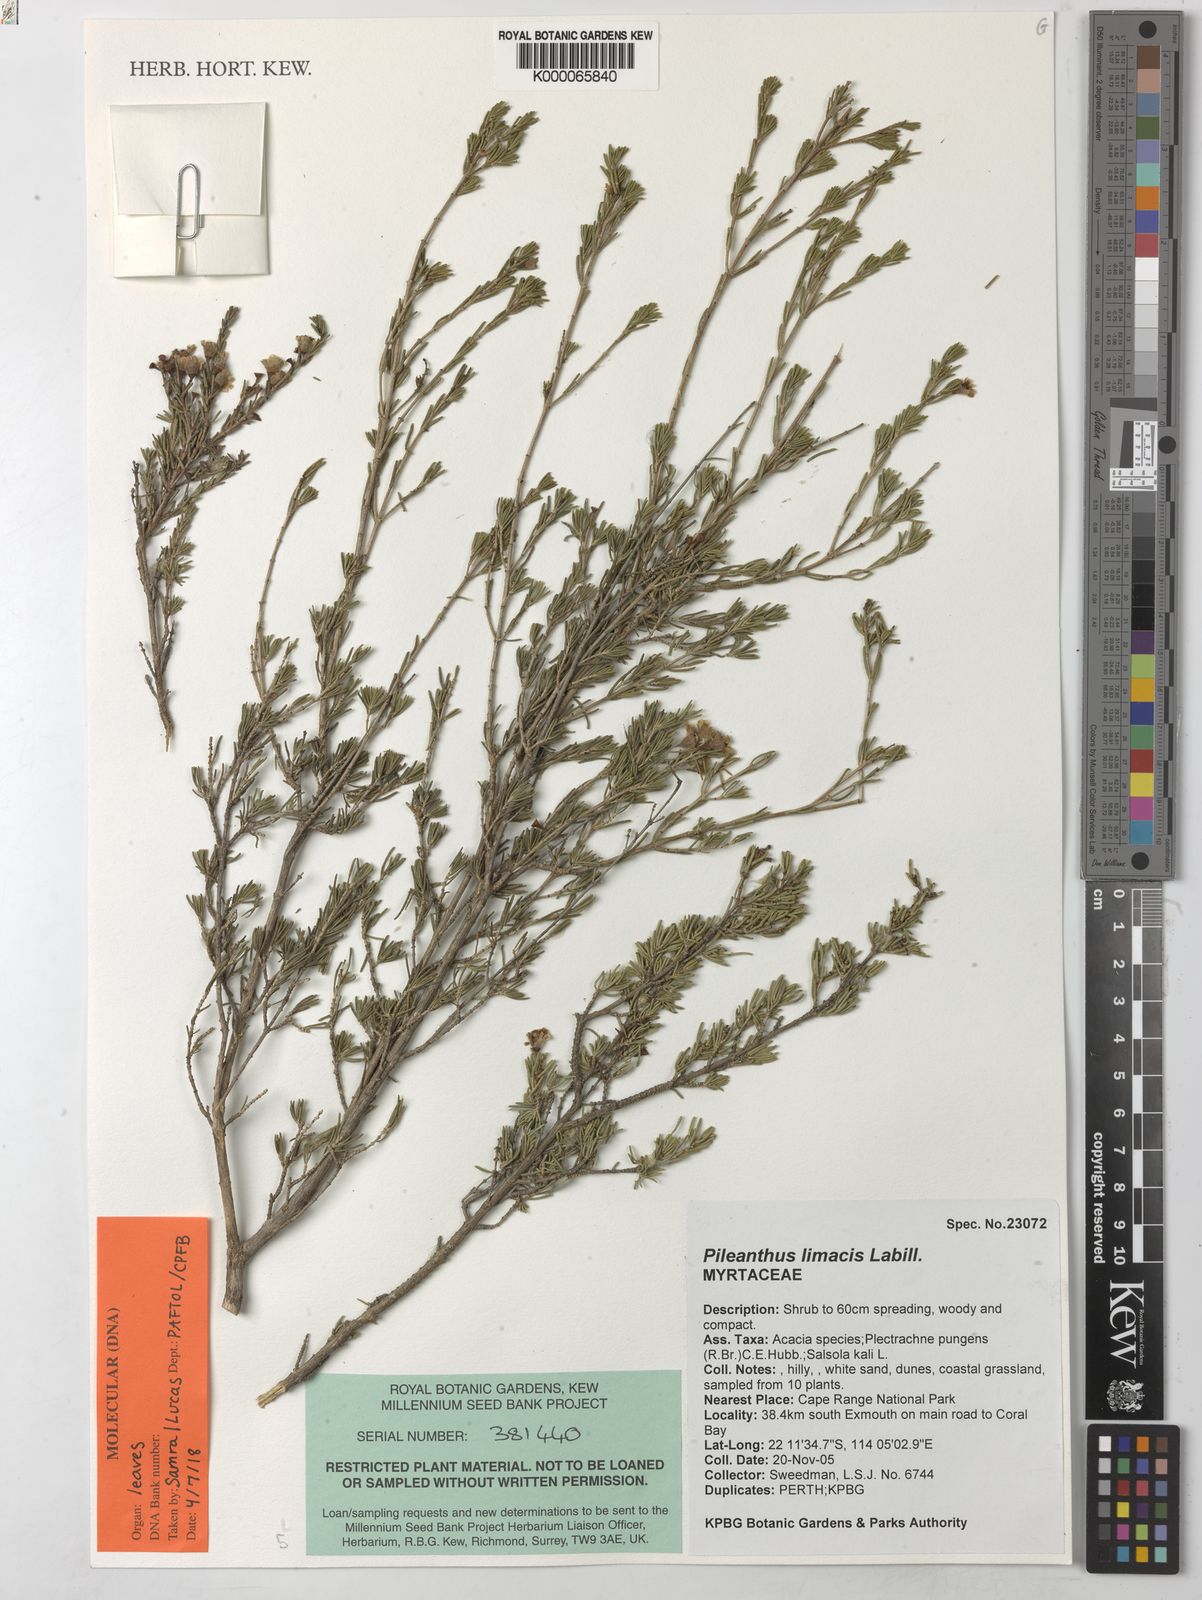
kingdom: Plantae
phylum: Tracheophyta
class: Magnoliopsida
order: Myrtales
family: Myrtaceae
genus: Pileanthus
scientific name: Pileanthus limacis
